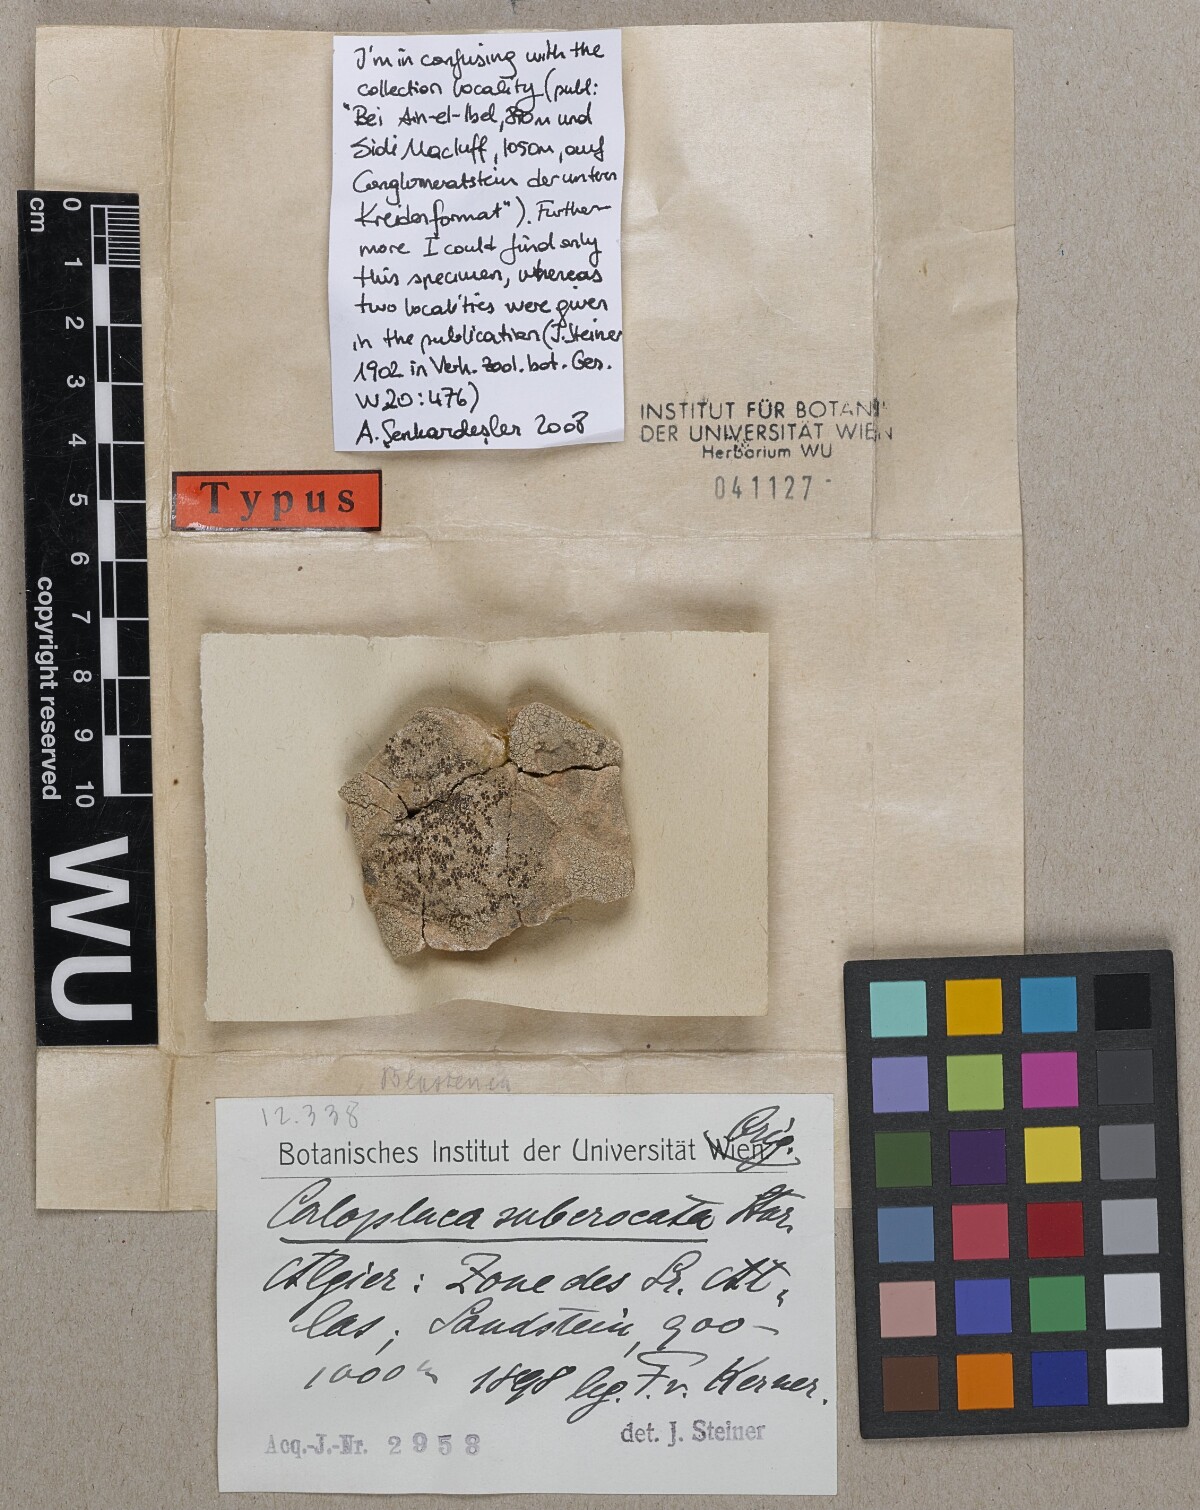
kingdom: Fungi
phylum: Ascomycota
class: Lecanoromycetes
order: Teloschistales
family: Teloschistaceae
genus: Caloplaca
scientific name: Caloplaca
